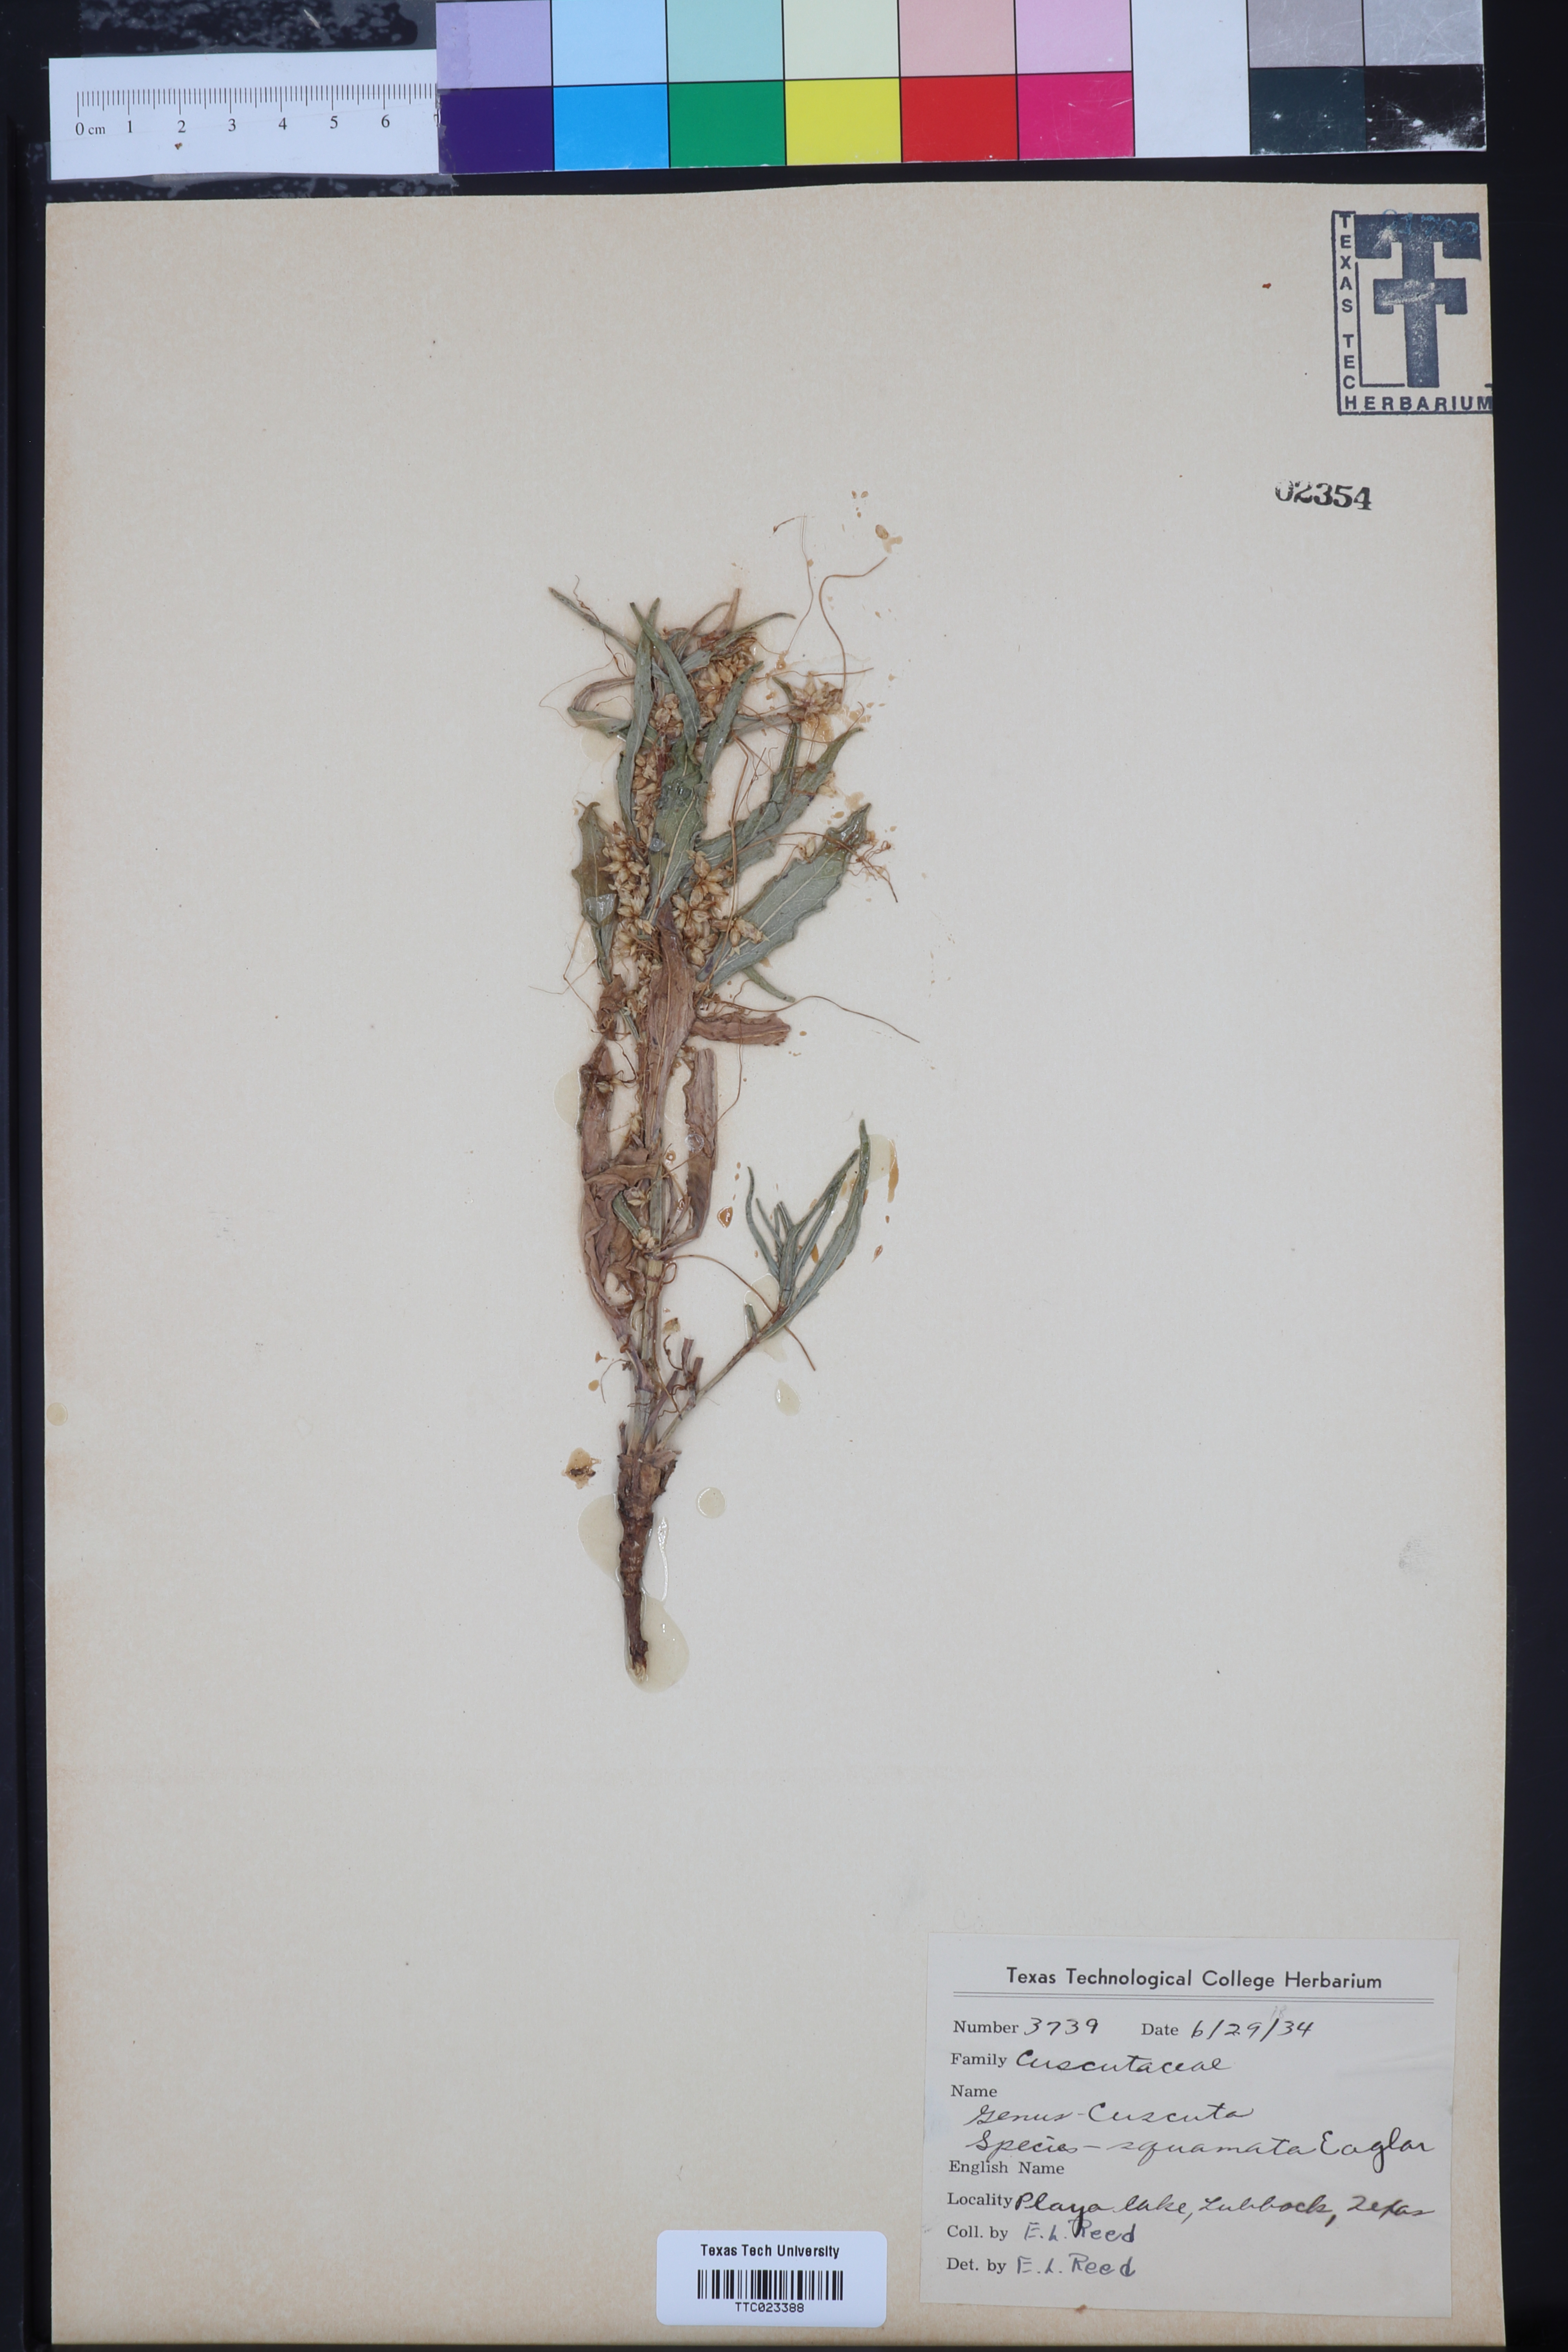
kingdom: Plantae
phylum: Tracheophyta
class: Magnoliopsida
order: Solanales
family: Convolvulaceae
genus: Cuscuta
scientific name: Cuscuta dentatasquamata
